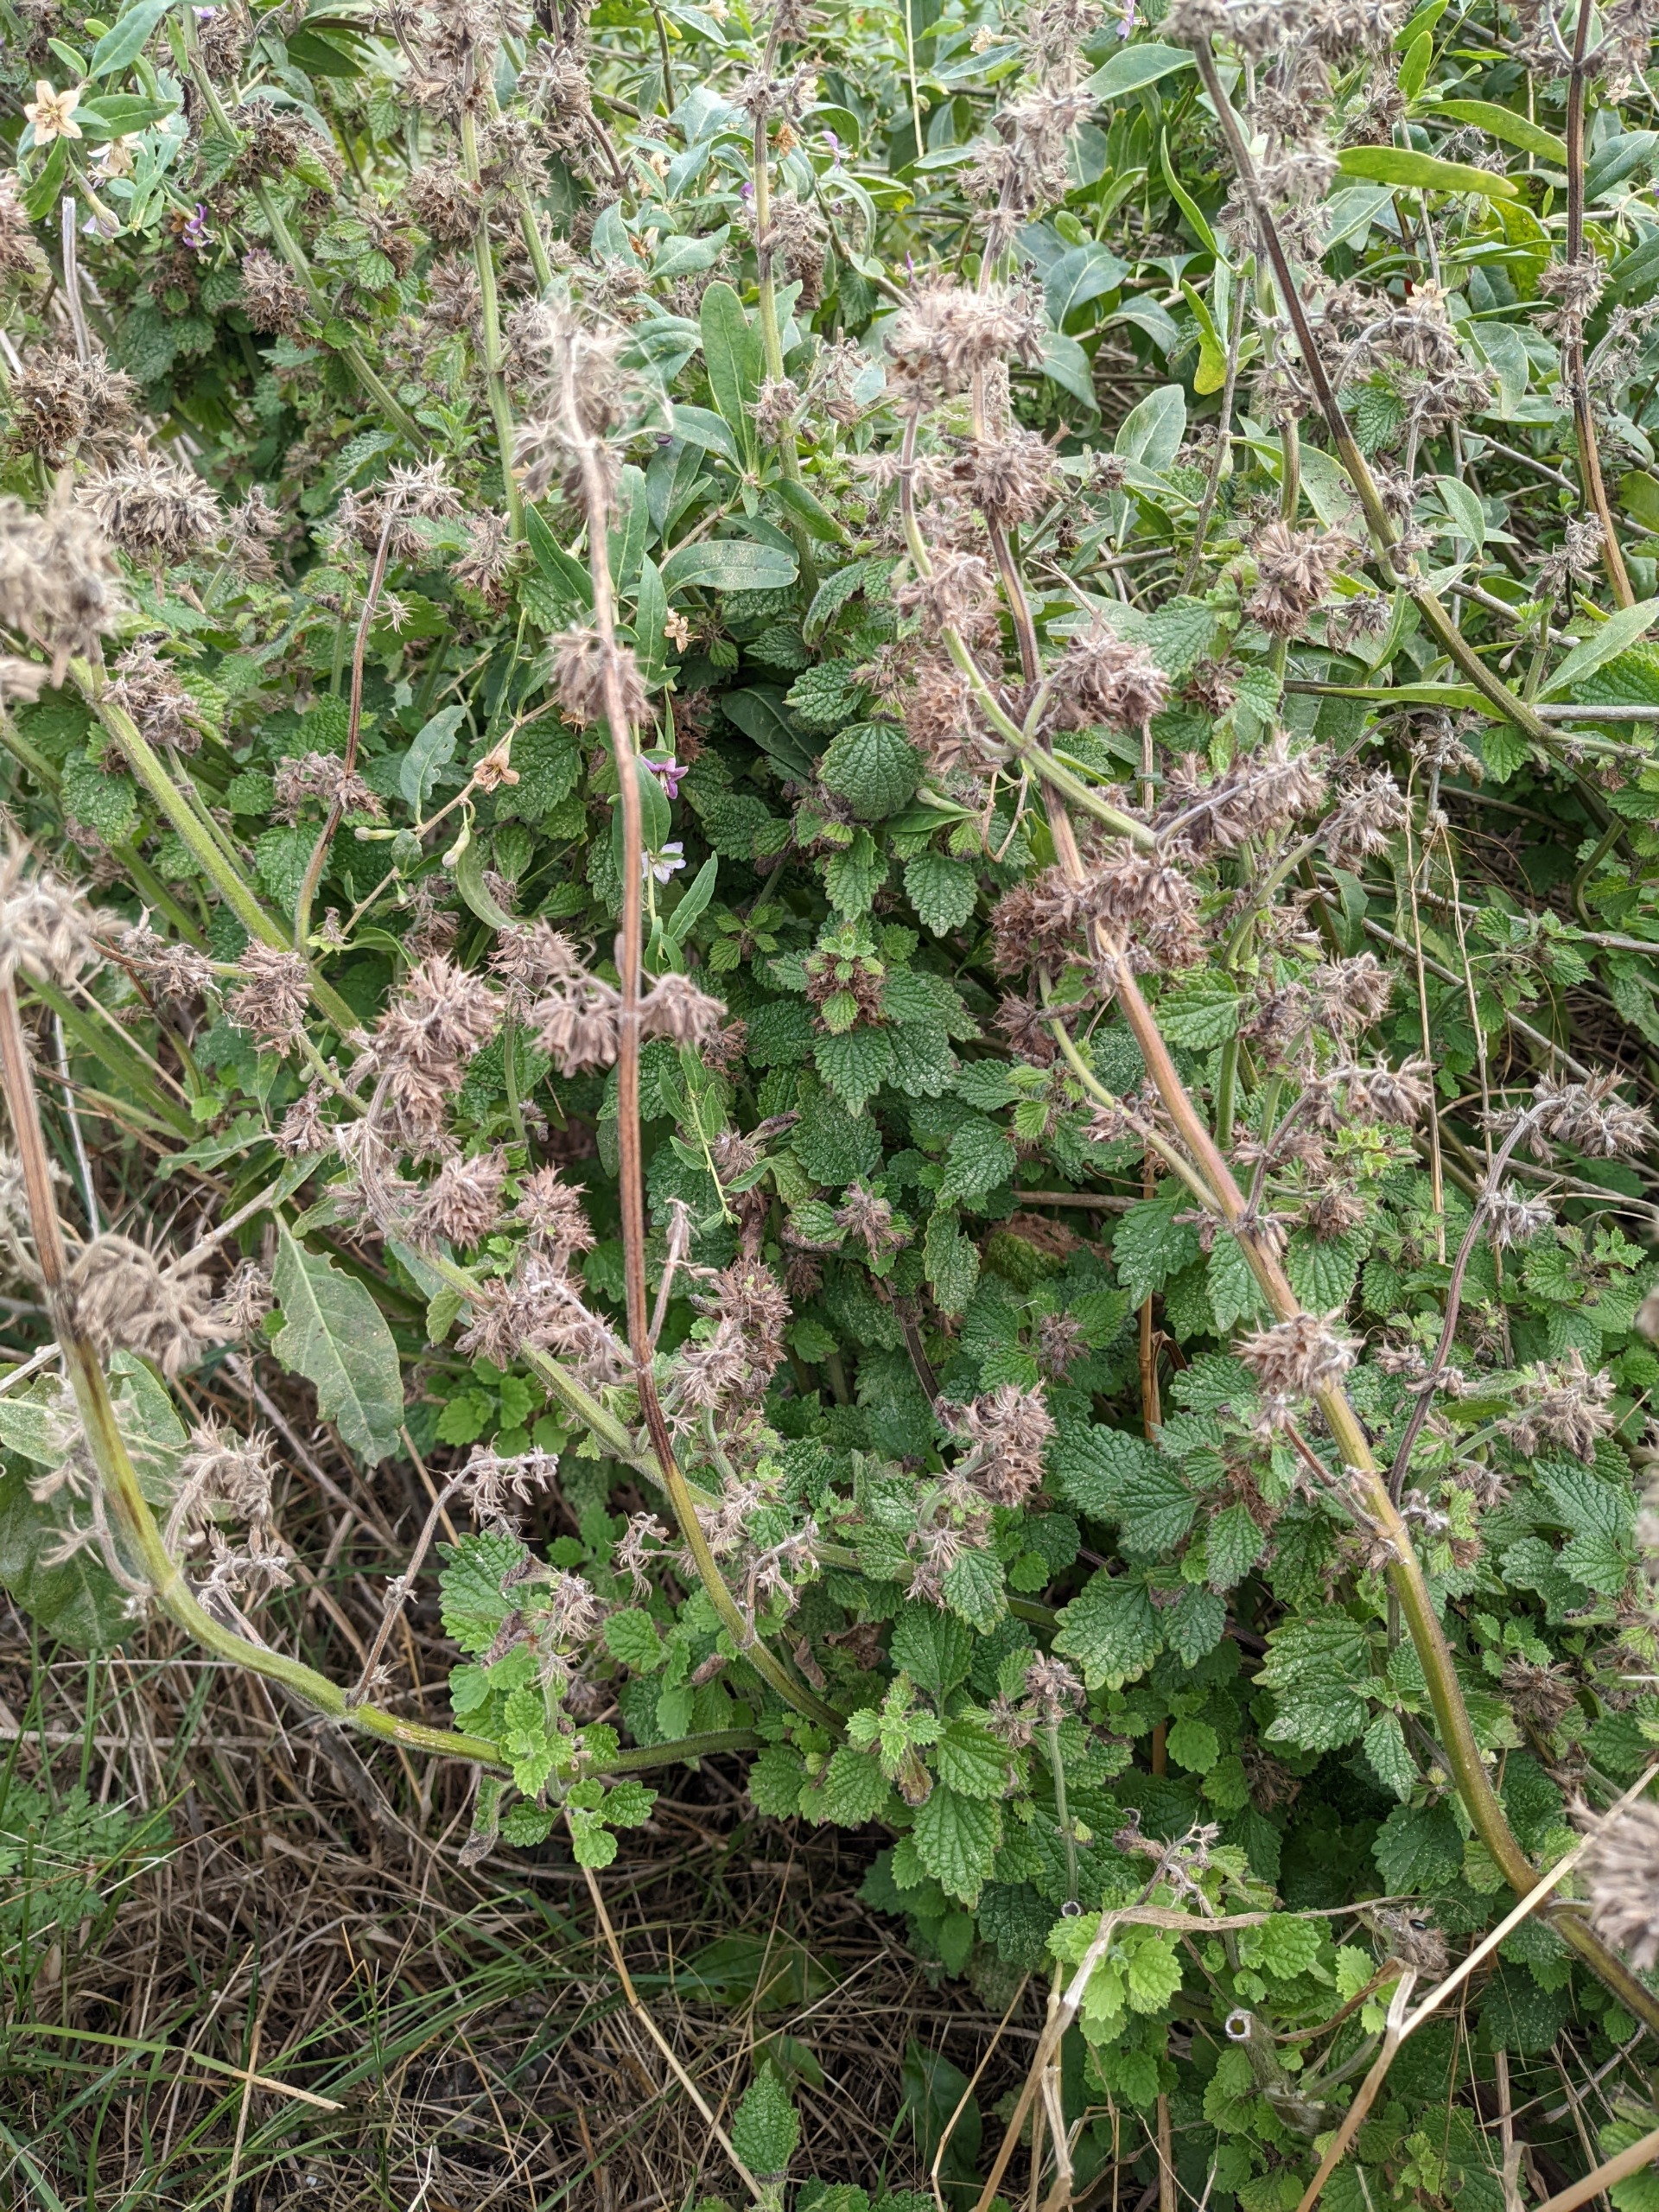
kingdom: Plantae
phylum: Tracheophyta
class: Magnoliopsida
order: Lamiales
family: Lamiaceae
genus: Ballota
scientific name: Ballota nigra
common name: Tandbæger
